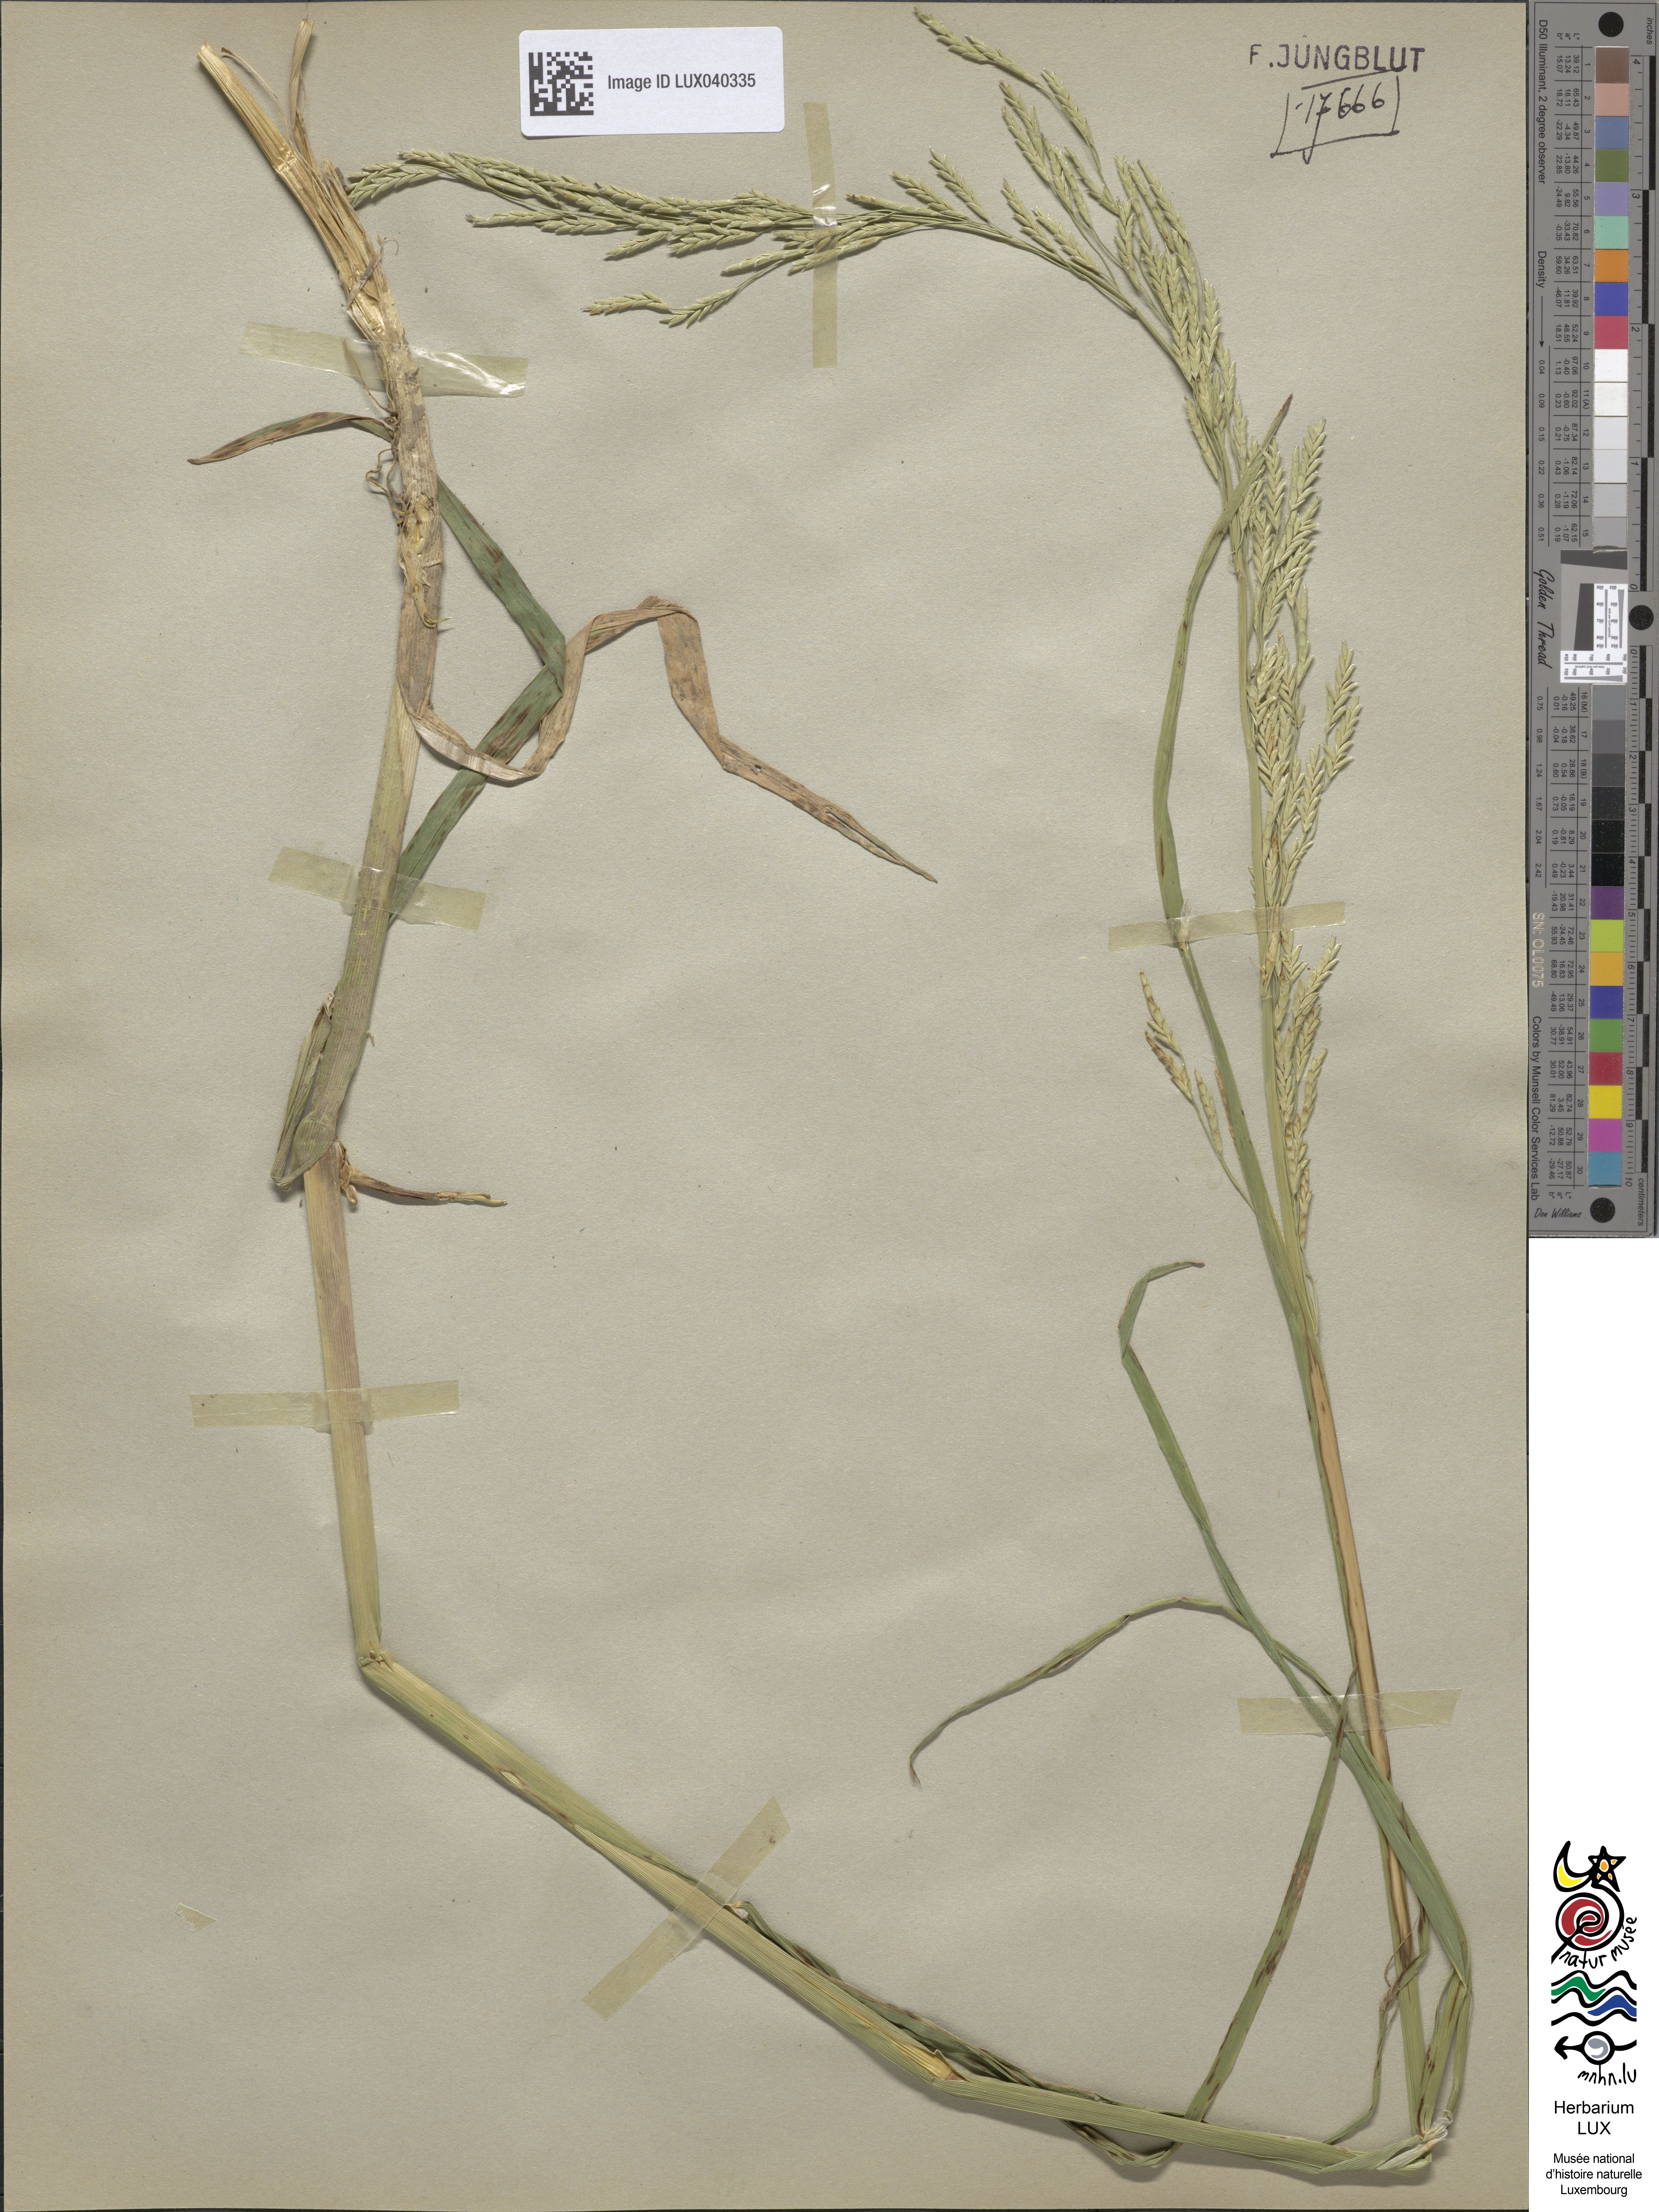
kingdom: Plantae
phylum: Tracheophyta
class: Liliopsida
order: Poales
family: Poaceae
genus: Glyceria
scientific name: Glyceria notata
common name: Plicate sweet-grass
